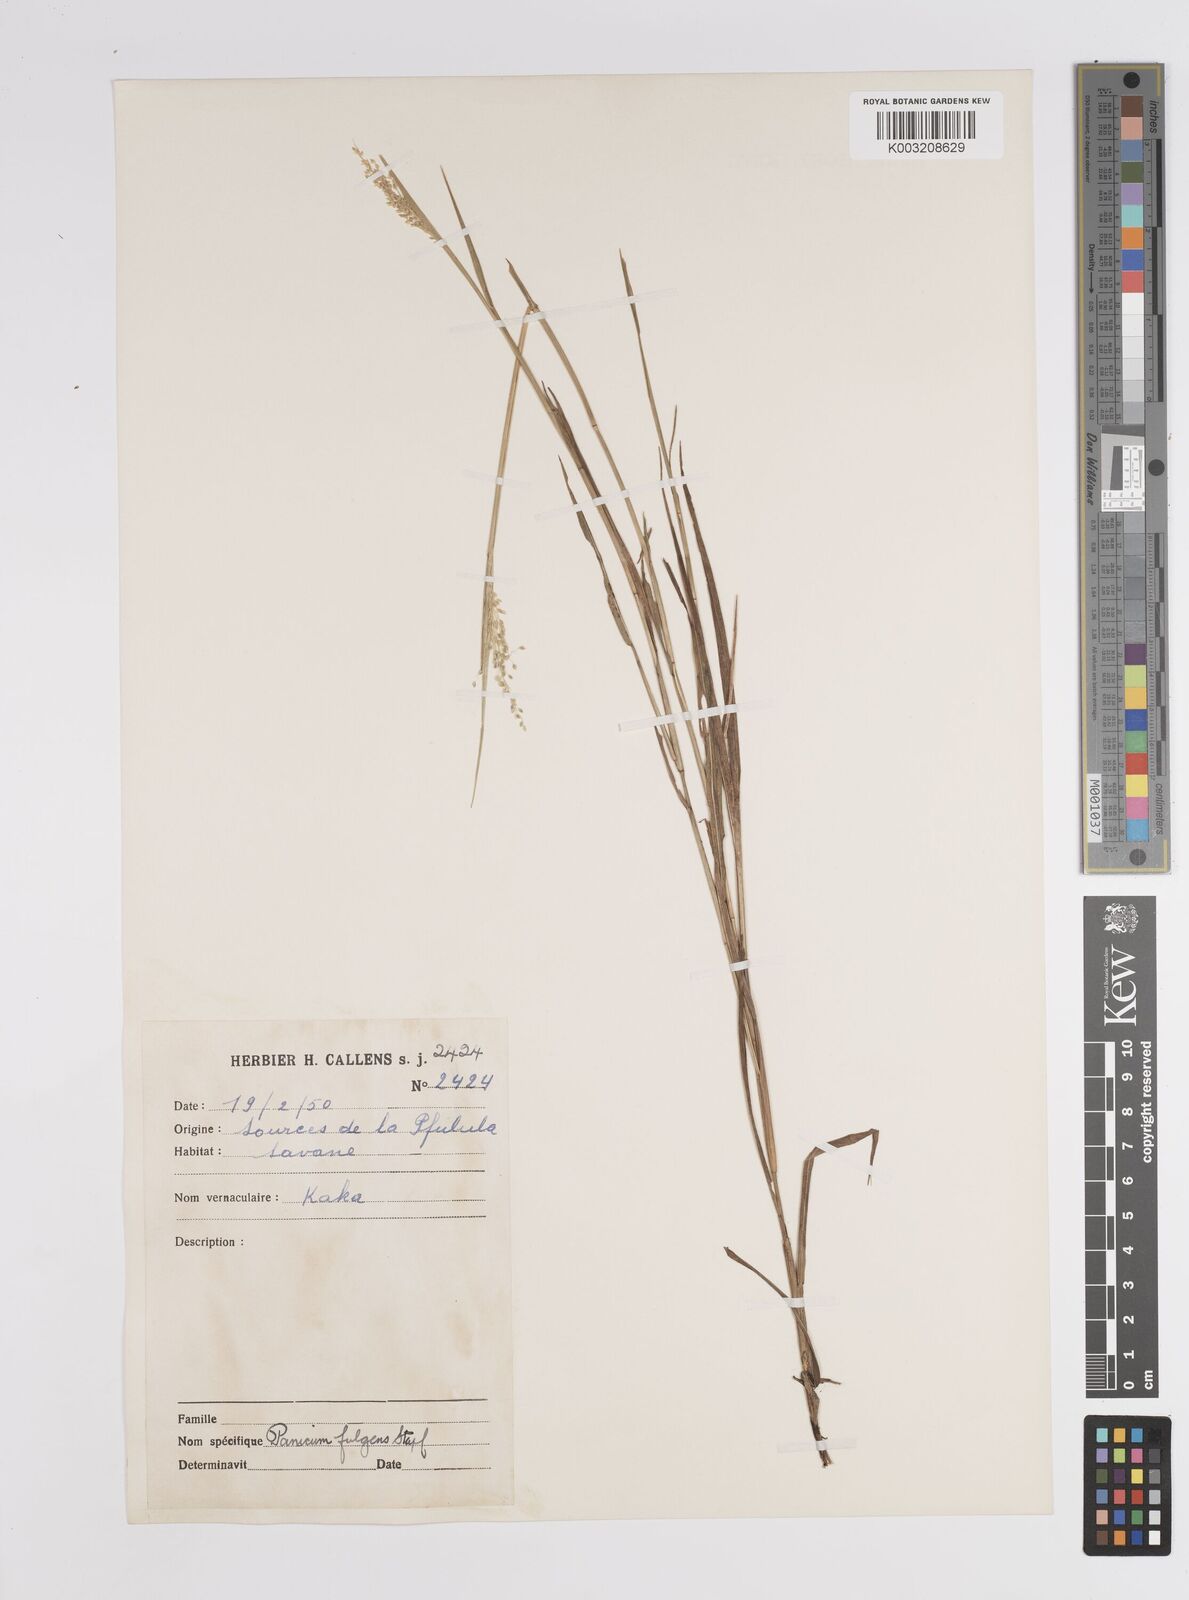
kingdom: Plantae
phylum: Tracheophyta
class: Liliopsida
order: Poales
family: Poaceae
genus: Trichanthecium
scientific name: Trichanthecium nervatum
